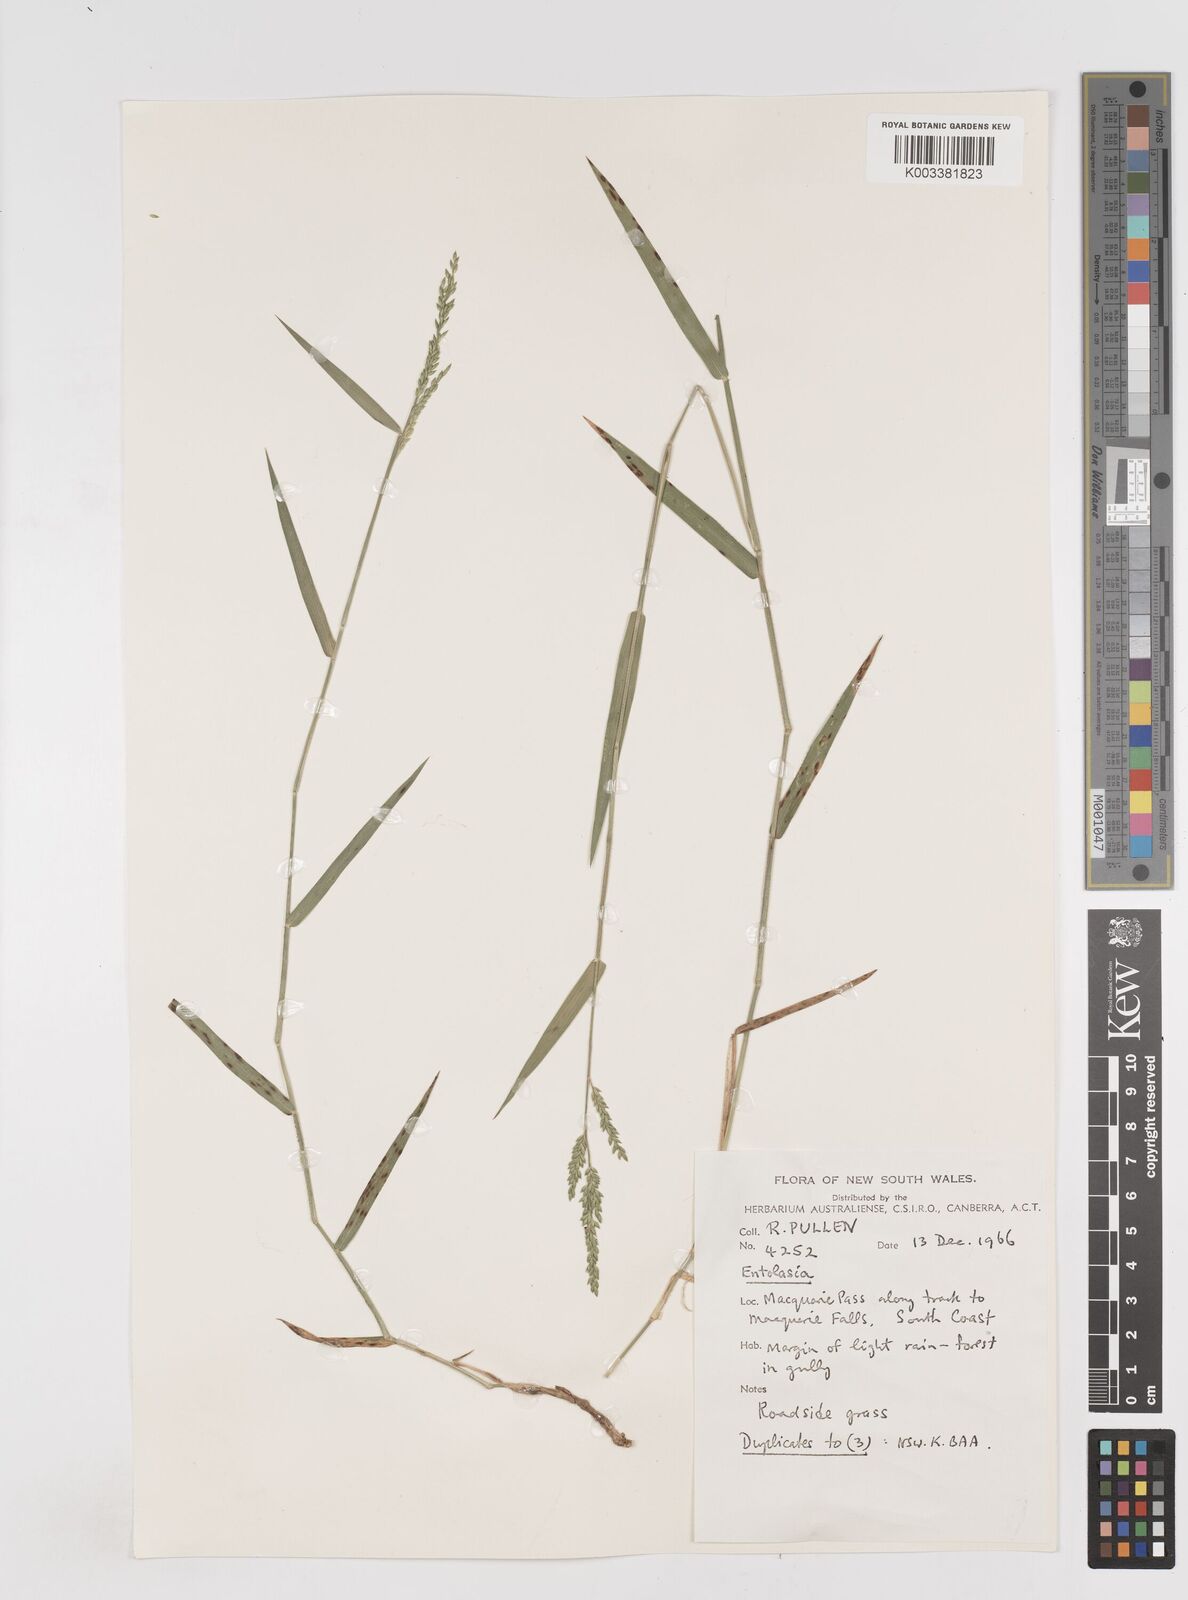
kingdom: Plantae
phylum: Tracheophyta
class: Liliopsida
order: Poales
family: Poaceae
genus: Entolasia
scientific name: Entolasia
